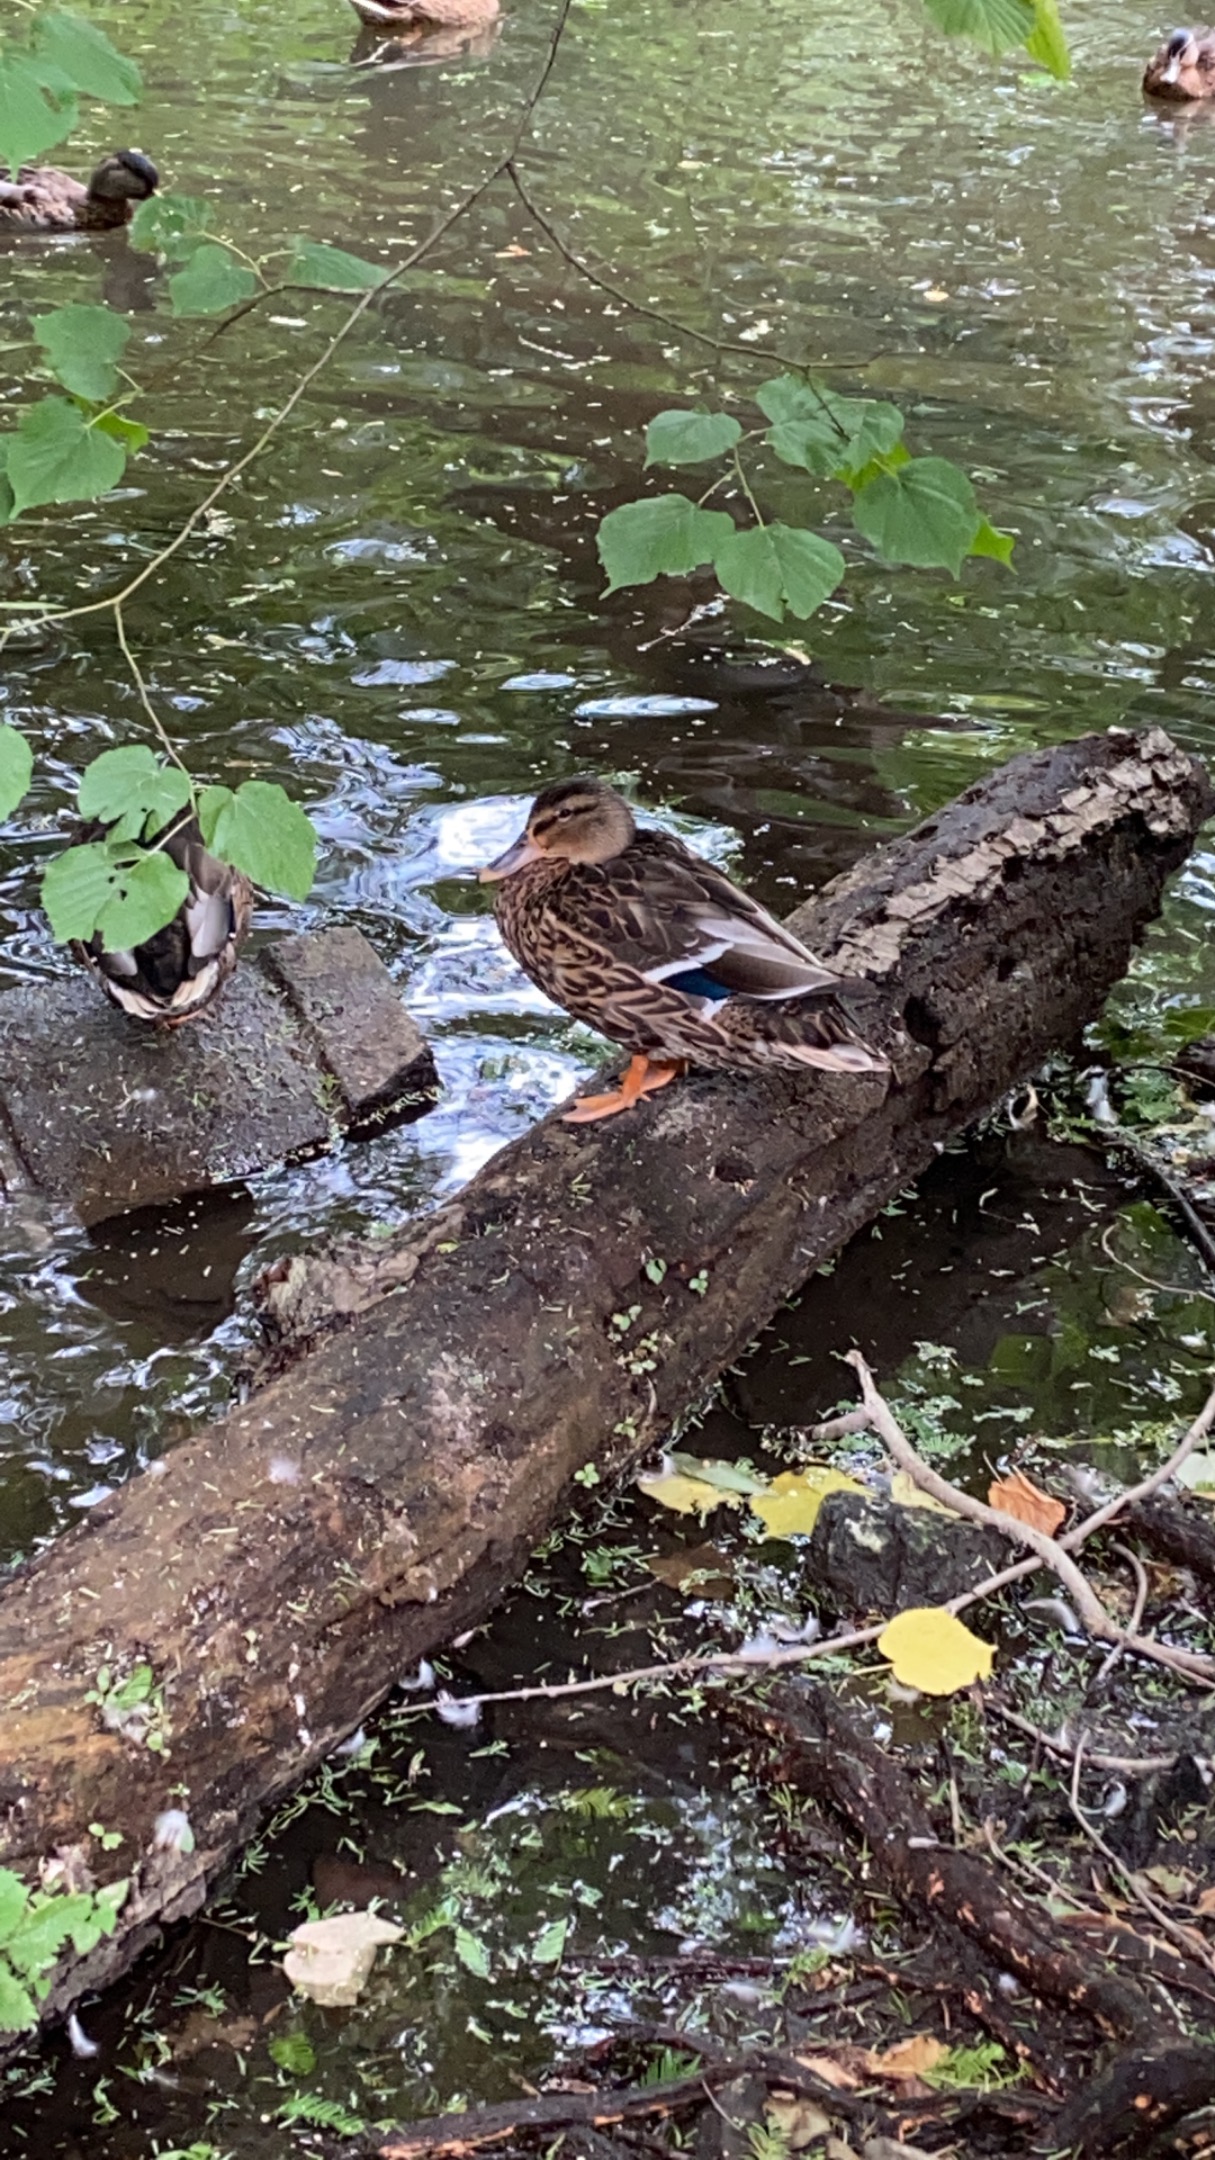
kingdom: Animalia
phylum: Chordata
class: Aves
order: Anseriformes
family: Anatidae
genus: Anas
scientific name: Anas platyrhynchos
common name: Gråand
